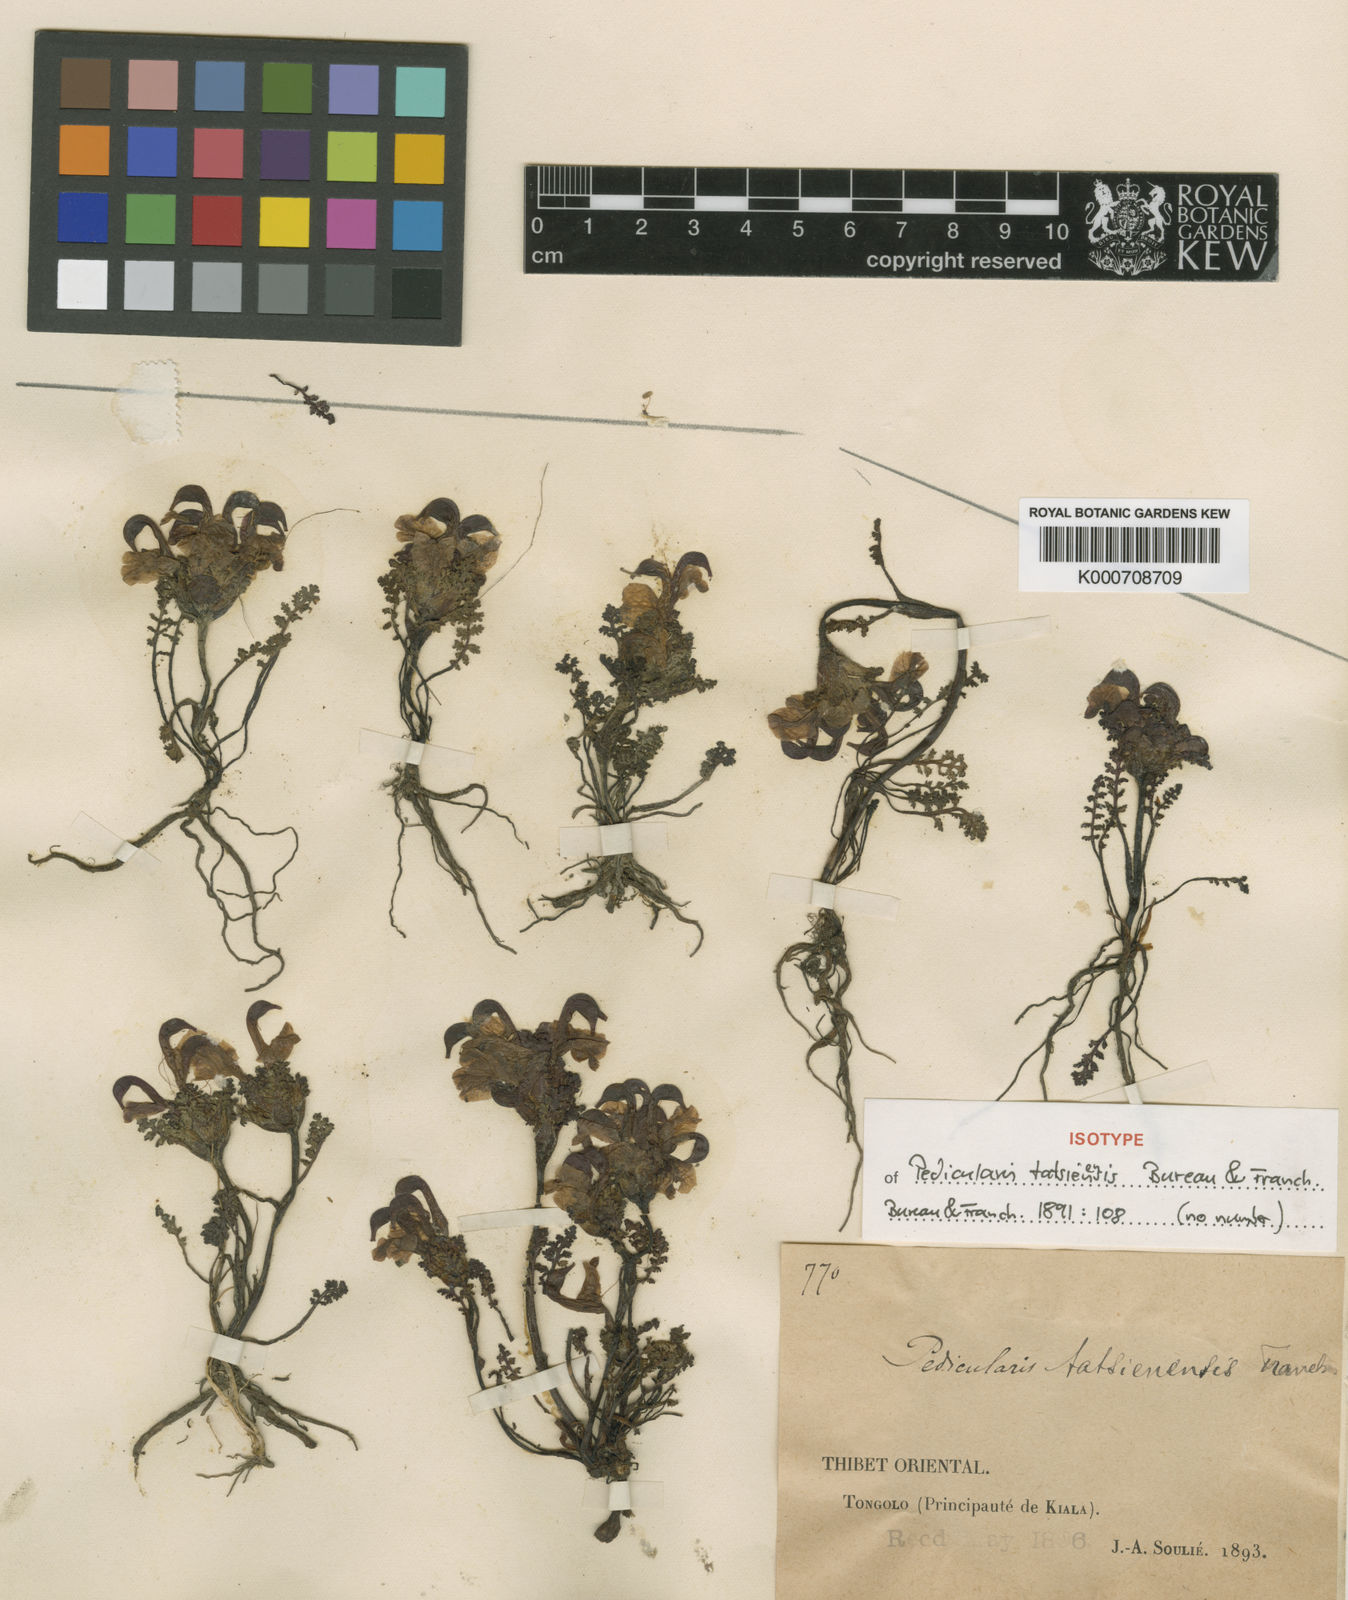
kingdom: Plantae
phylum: Tracheophyta
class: Magnoliopsida
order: Lamiales
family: Orobanchaceae
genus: Pedicularis
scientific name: Pedicularis tatsienensis
